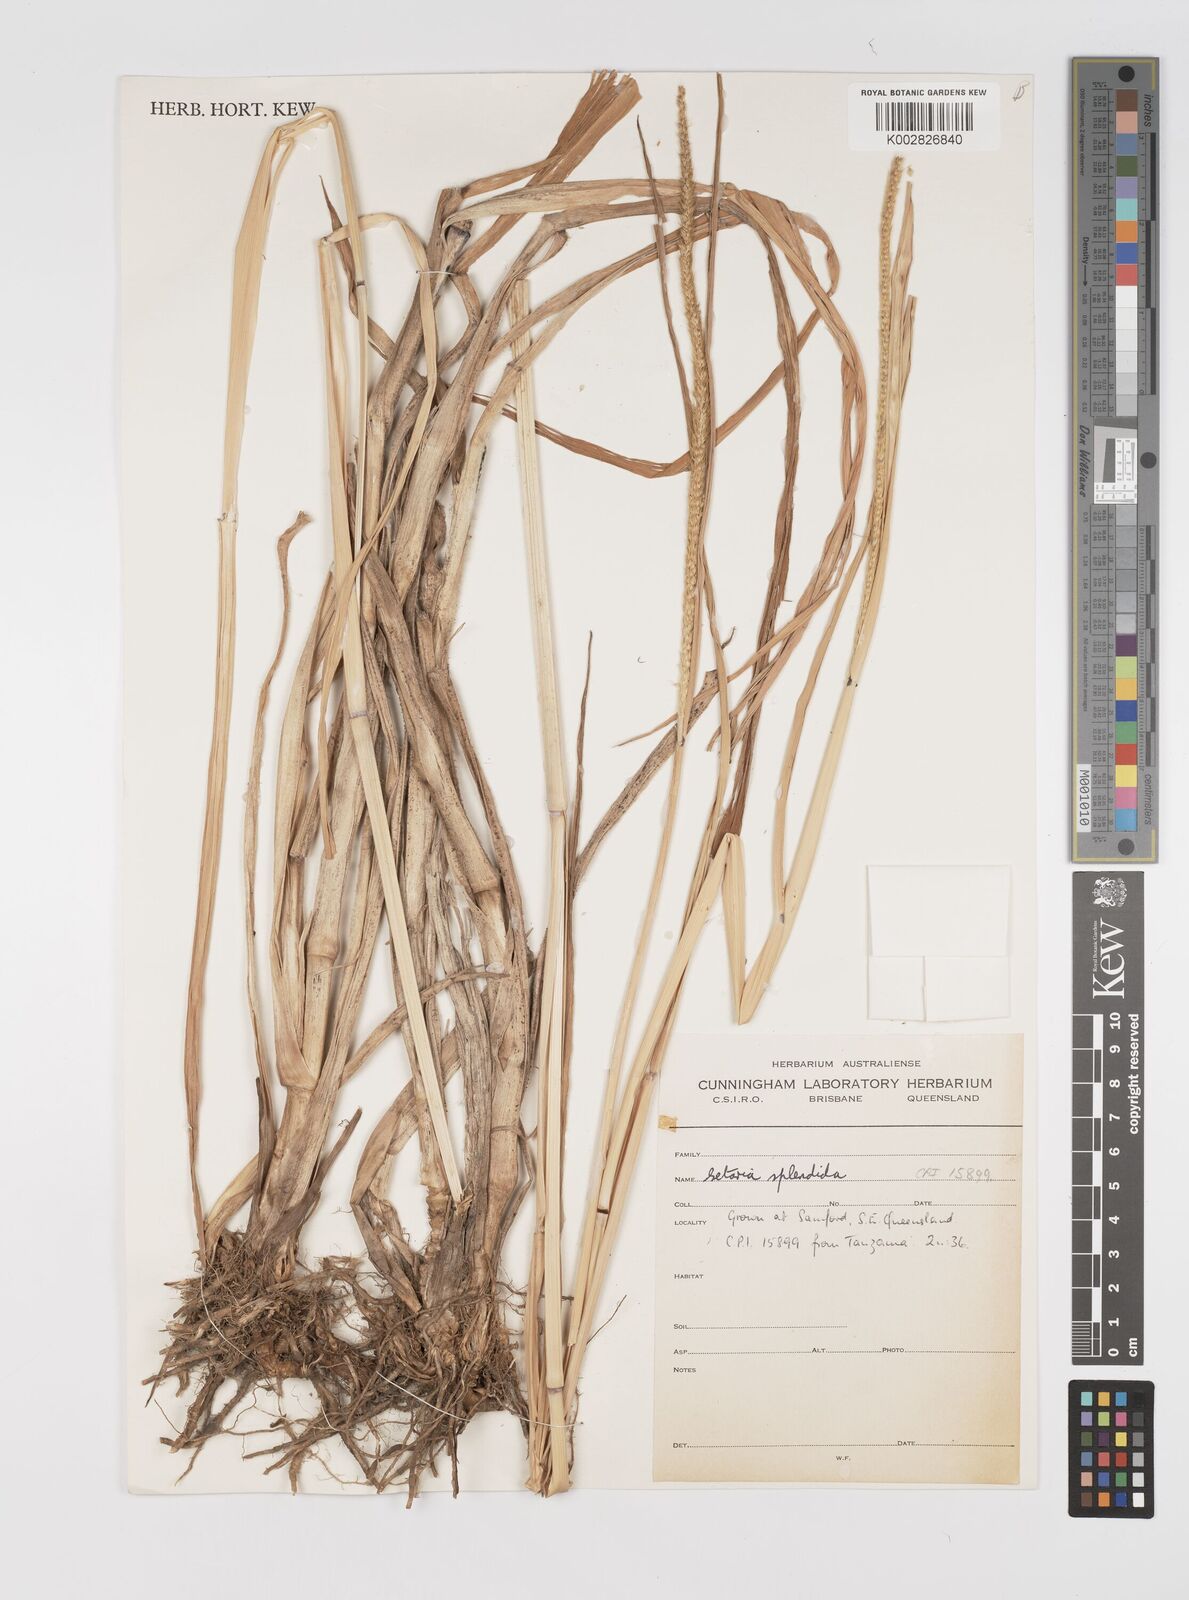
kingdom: Plantae
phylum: Tracheophyta
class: Liliopsida
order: Poales
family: Poaceae
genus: Setaria
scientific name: Setaria sphacelata
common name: African bristlegrass
